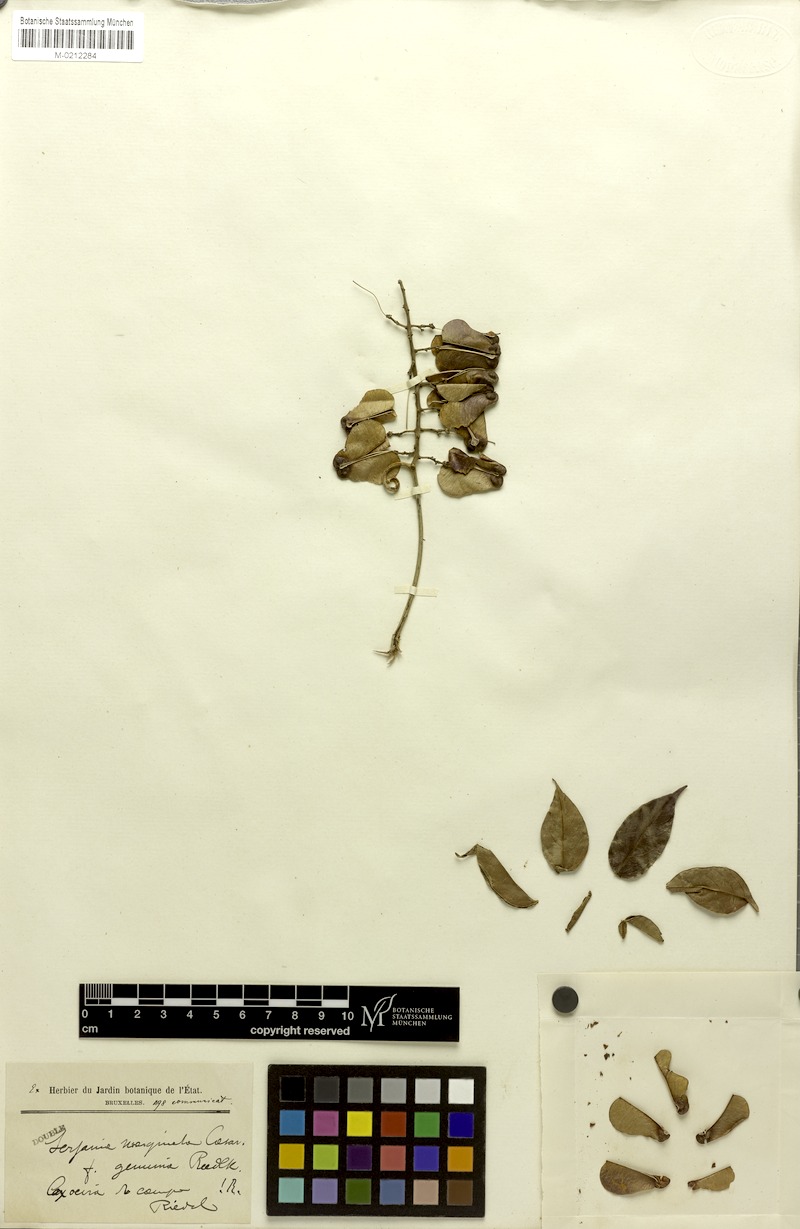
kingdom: Plantae
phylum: Tracheophyta
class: Magnoliopsida
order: Sapindales
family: Sapindaceae
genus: Serjania
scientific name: Serjania marginata
